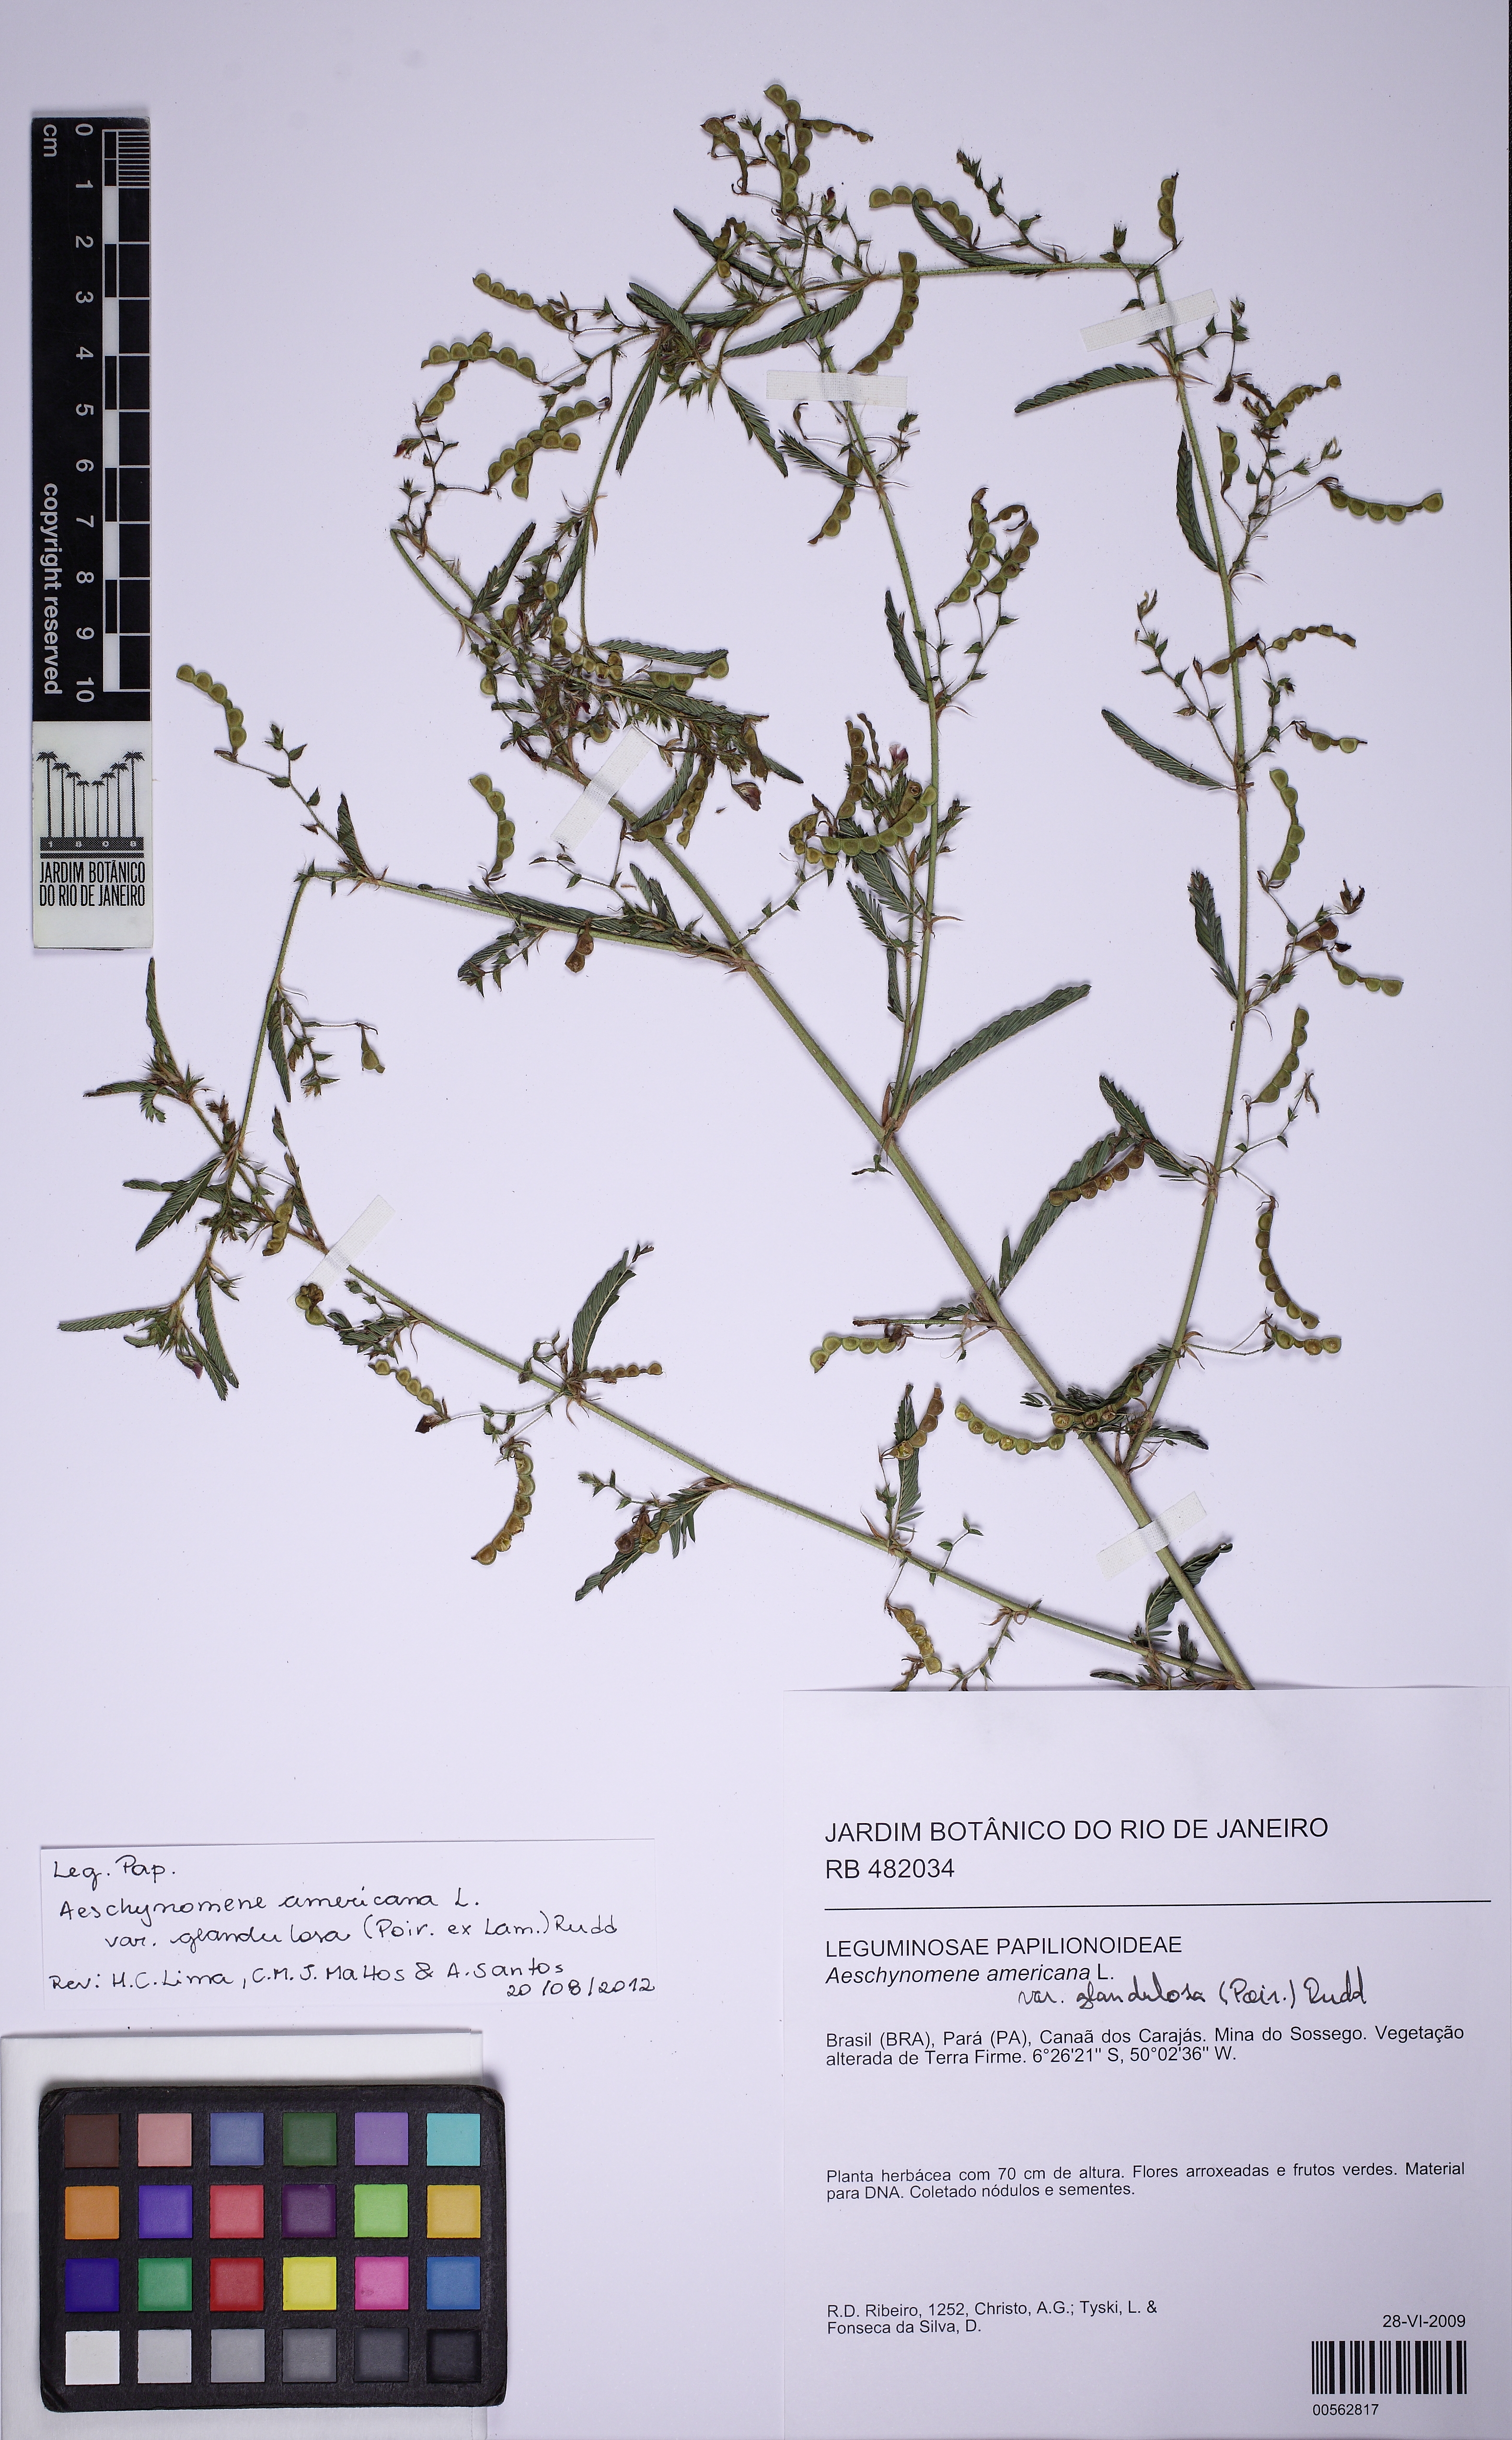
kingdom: Plantae
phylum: Tracheophyta
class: Magnoliopsida
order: Fabales
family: Fabaceae
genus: Aeschynomene
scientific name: Aeschynomene americana
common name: Joint-vetch
